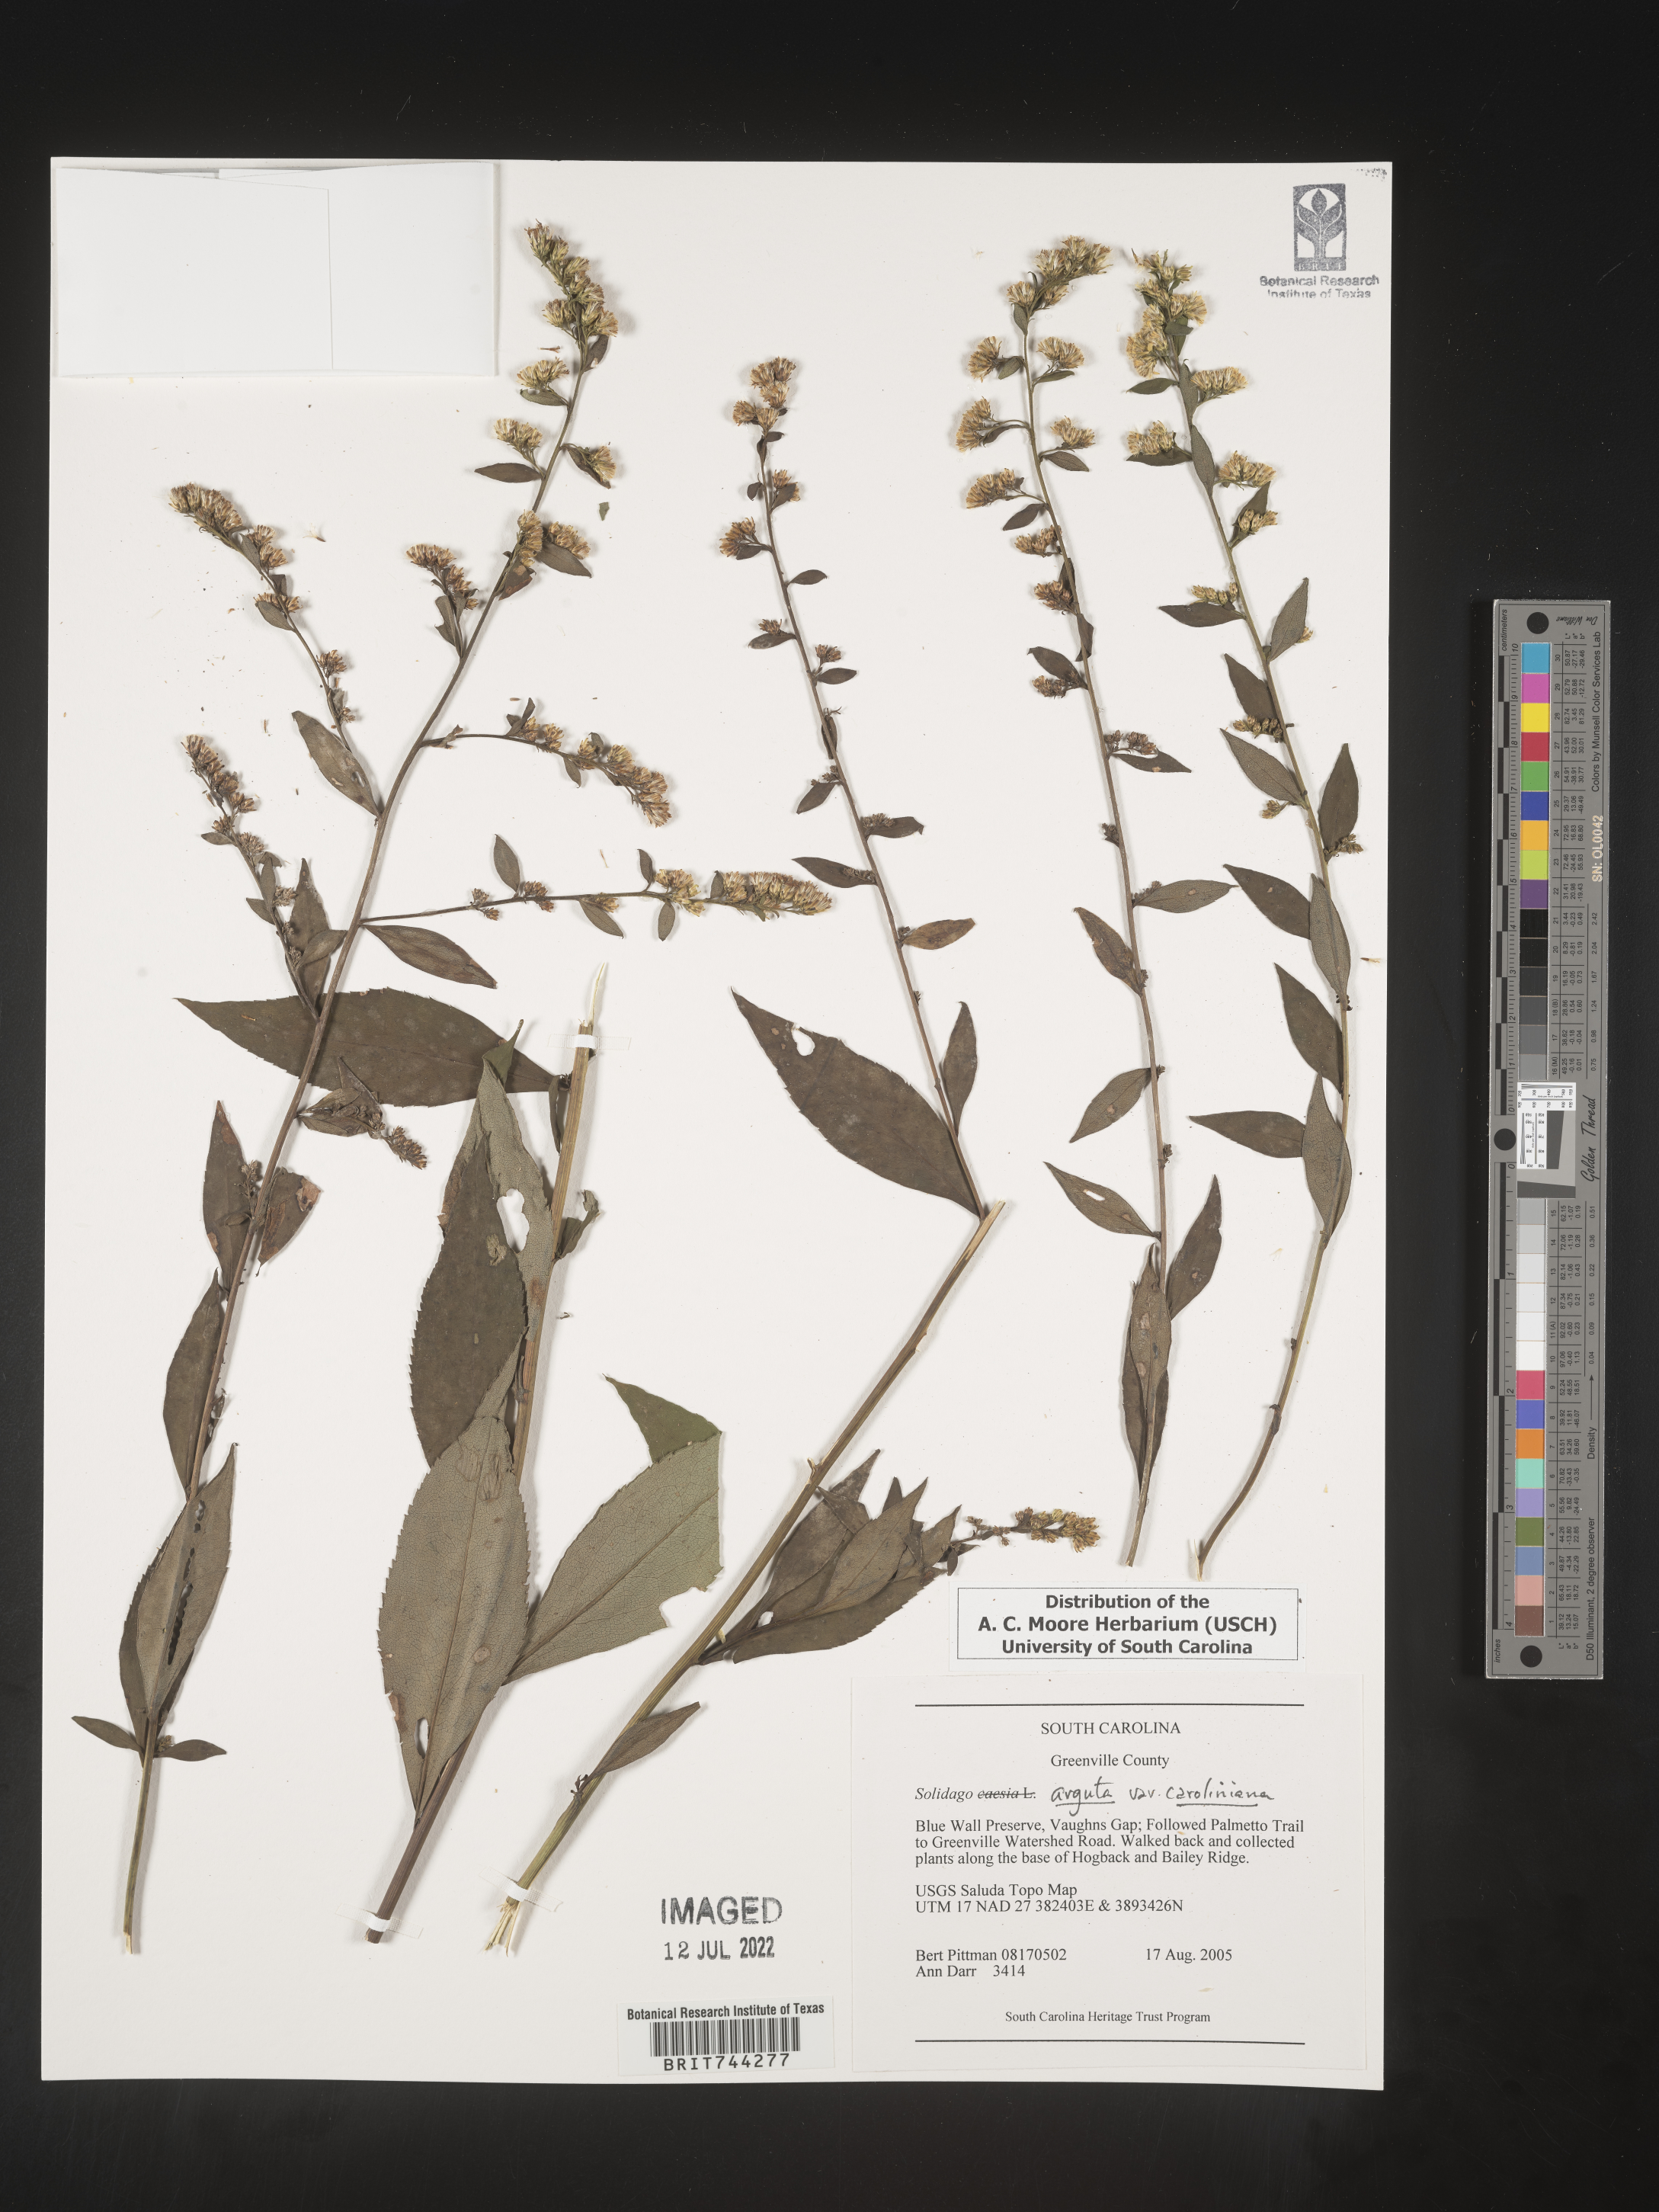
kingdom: Plantae
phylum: Tracheophyta
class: Magnoliopsida
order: Asterales
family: Asteraceae
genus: Solidago
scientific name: Solidago vaseyi
